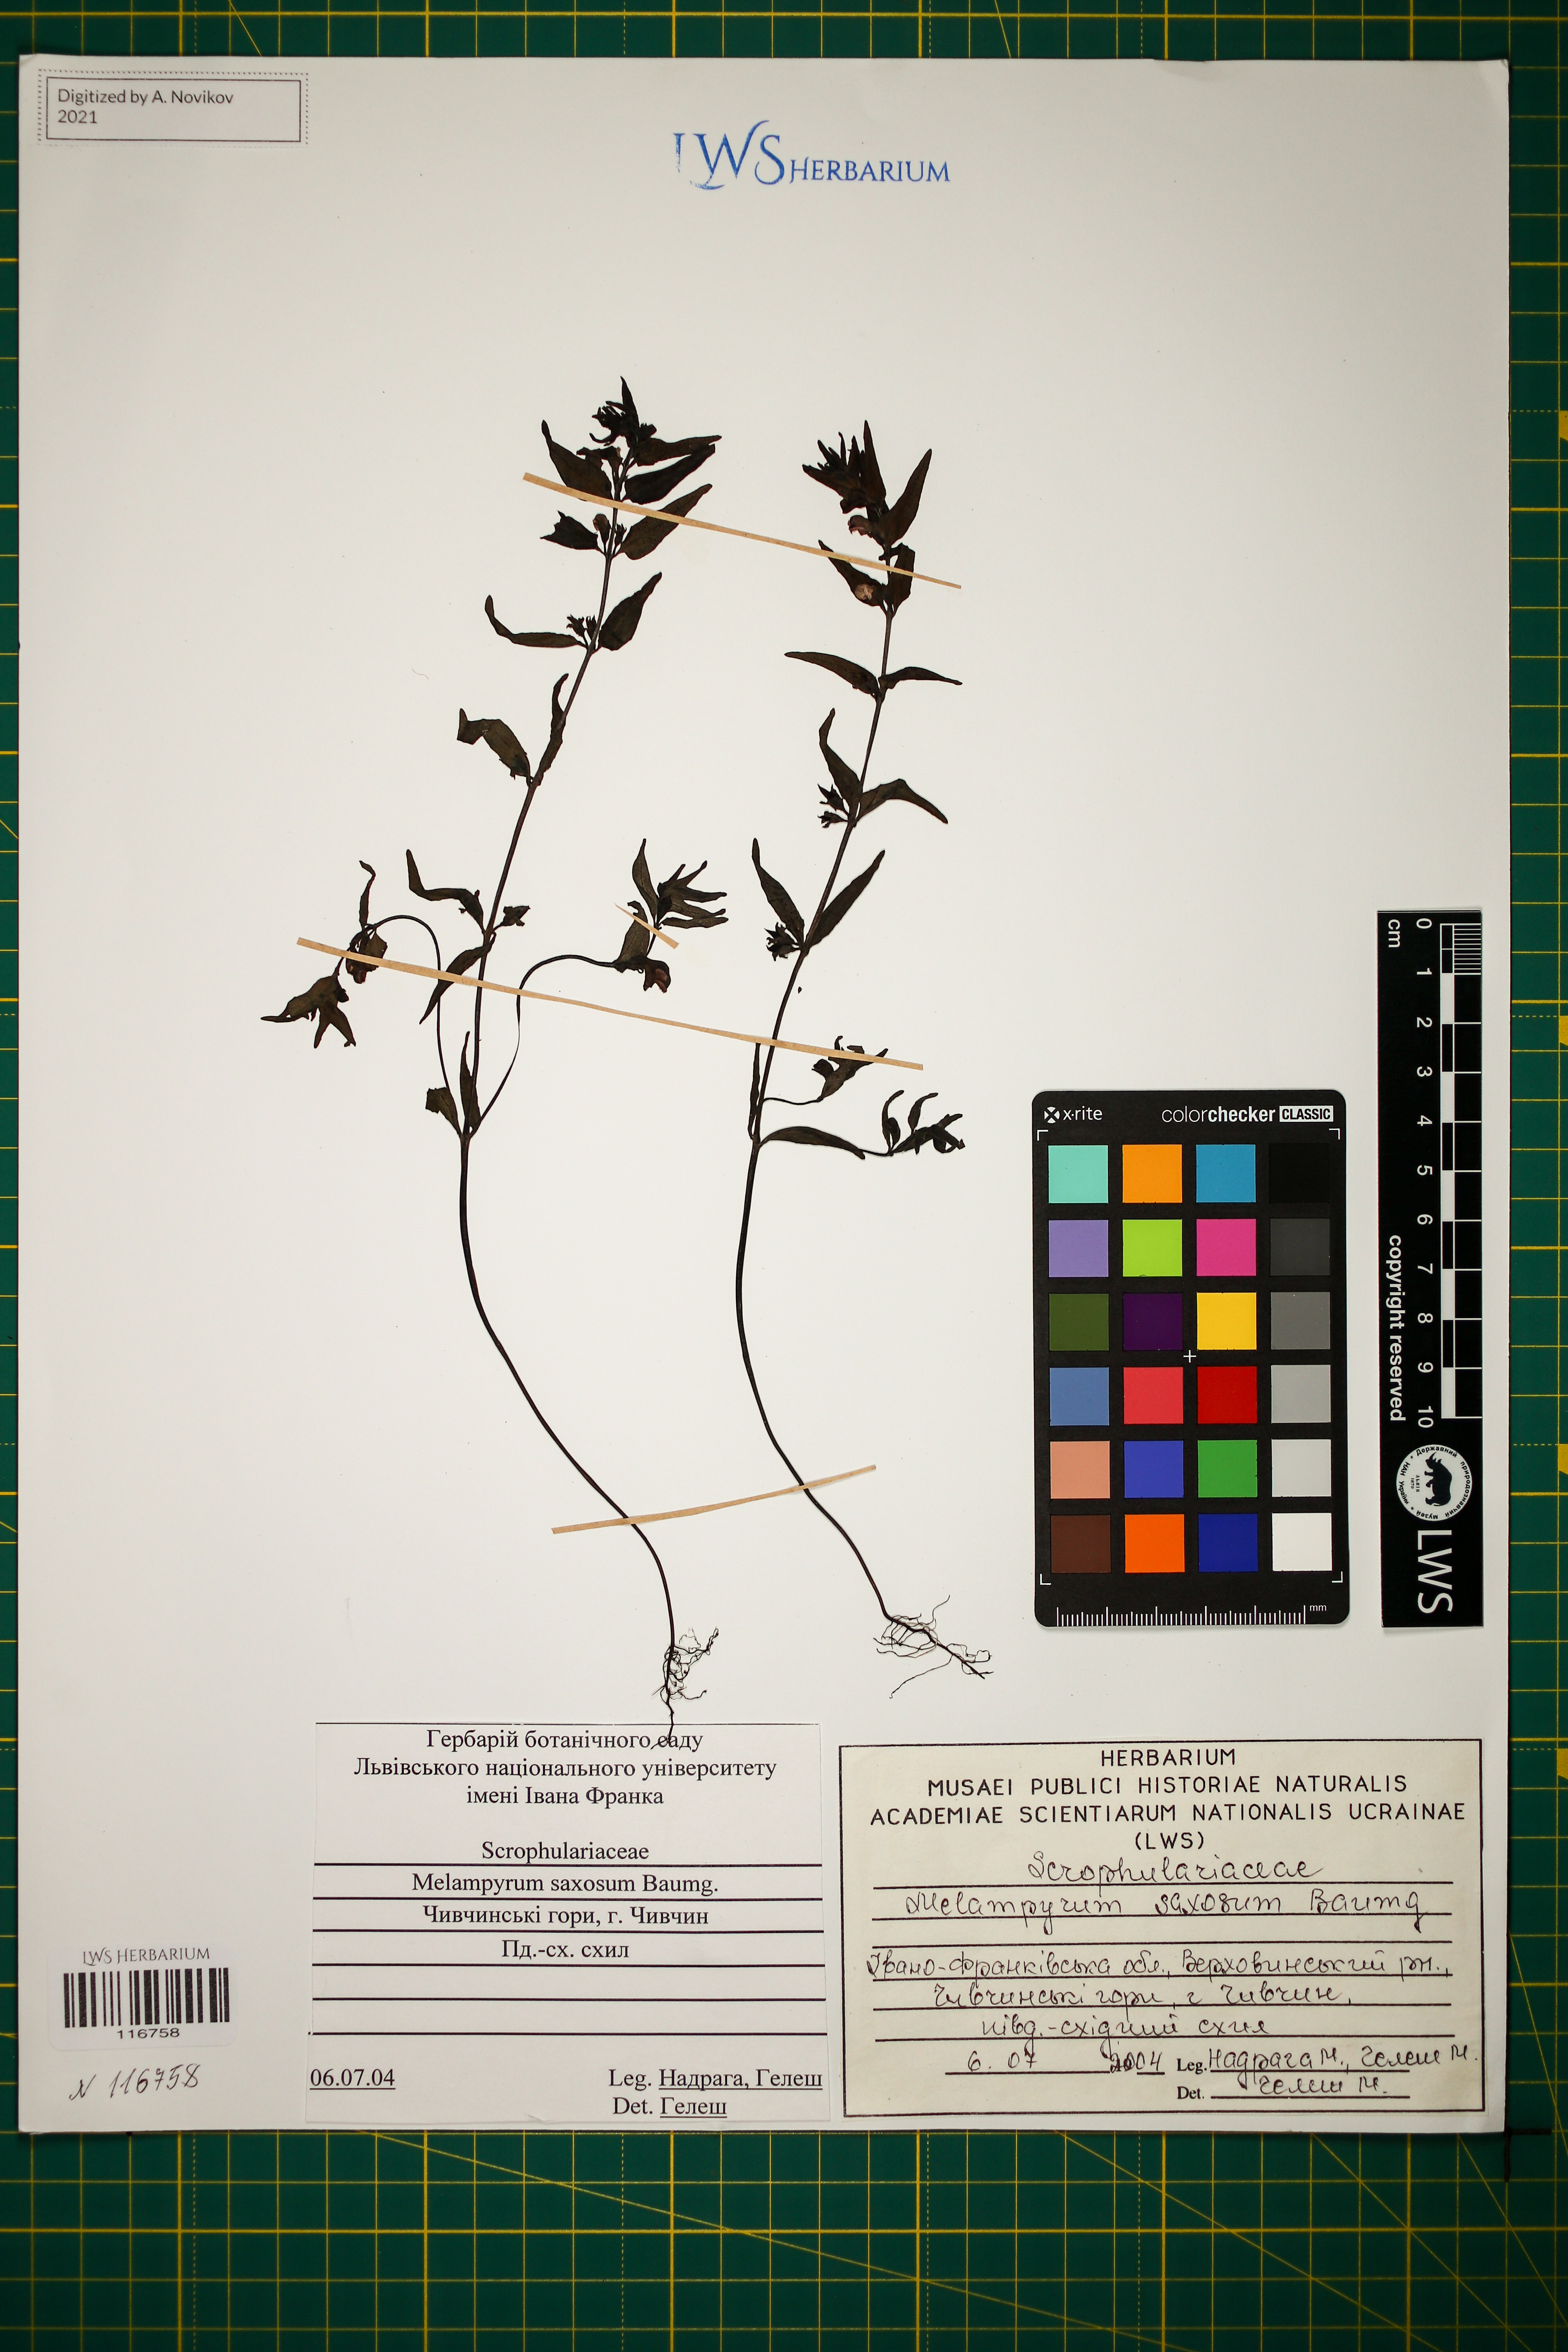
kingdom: Plantae
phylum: Tracheophyta
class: Magnoliopsida
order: Lamiales
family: Orobanchaceae
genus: Melampyrum
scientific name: Melampyrum saxosum
